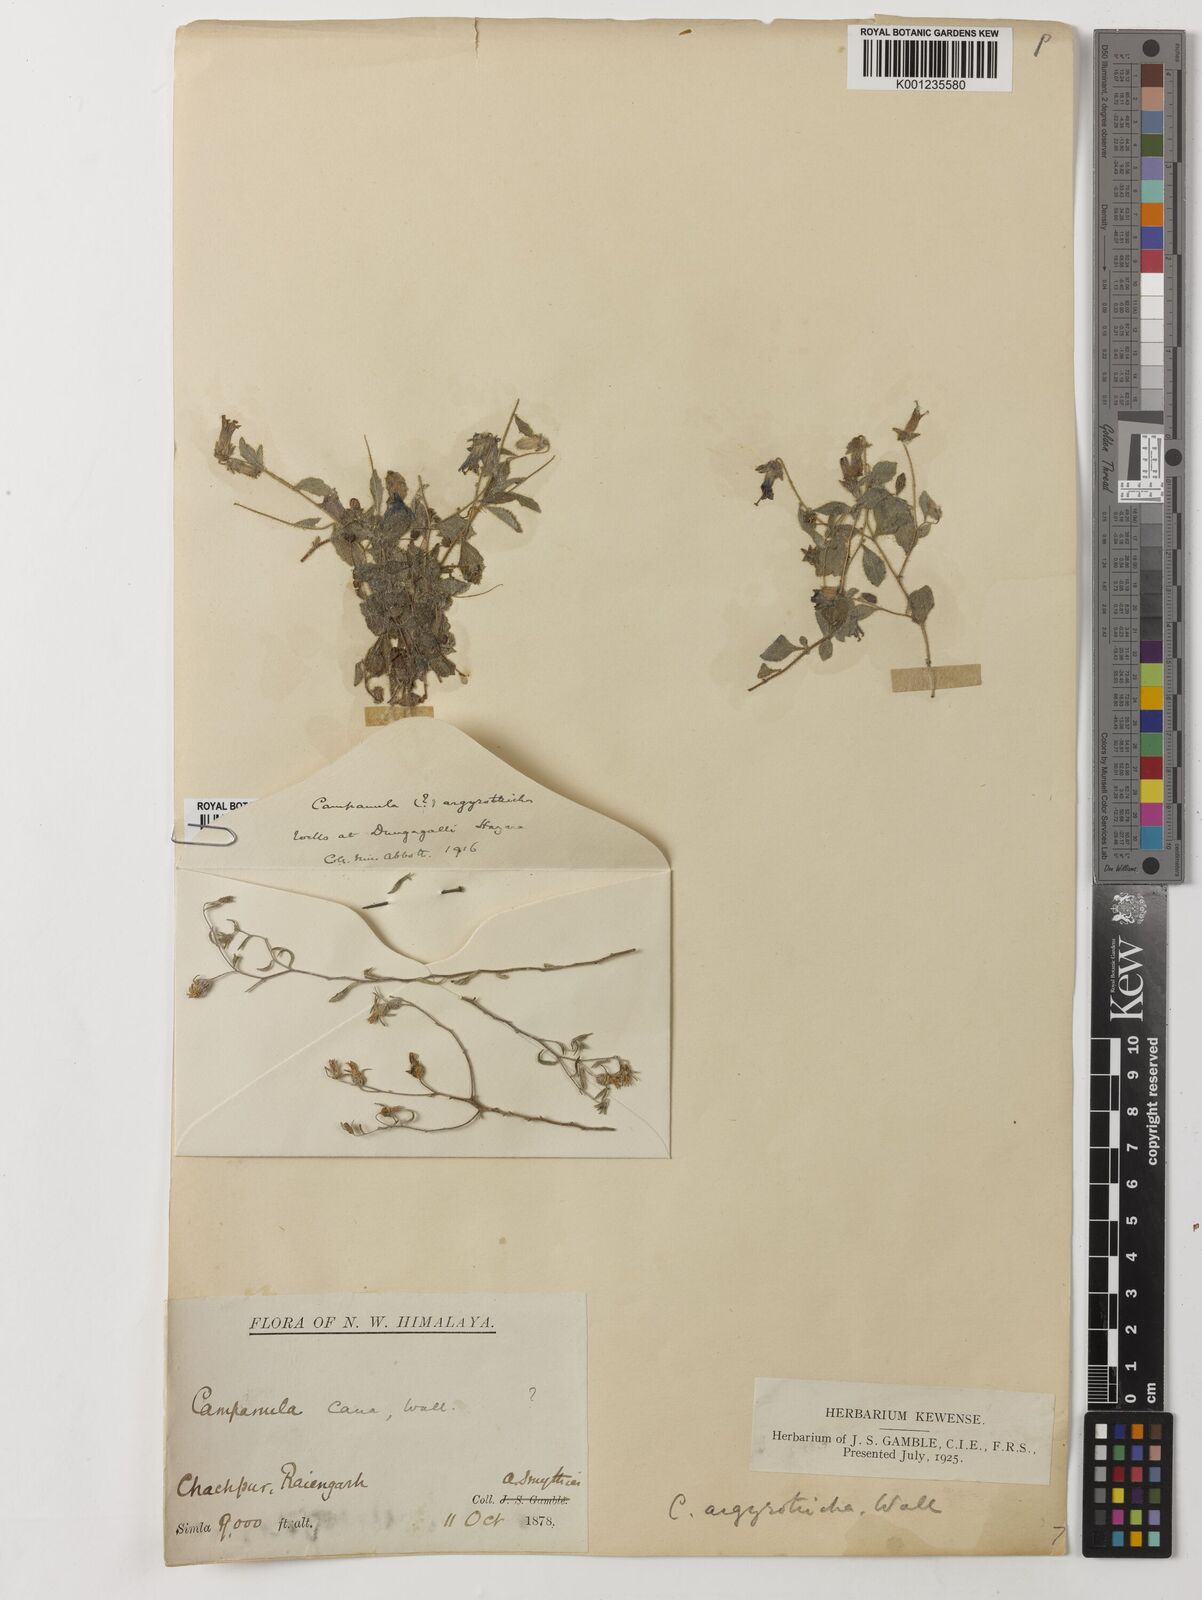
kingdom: Plantae
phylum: Tracheophyta
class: Magnoliopsida
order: Asterales
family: Campanulaceae
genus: Campanula
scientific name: Campanula argyrotricha
